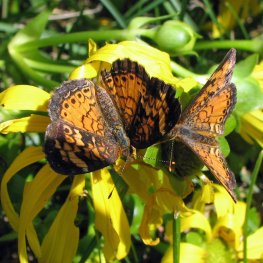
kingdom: Animalia
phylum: Arthropoda
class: Insecta
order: Lepidoptera
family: Nymphalidae
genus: Phyciodes
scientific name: Phyciodes tharos
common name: Northern Crescent
